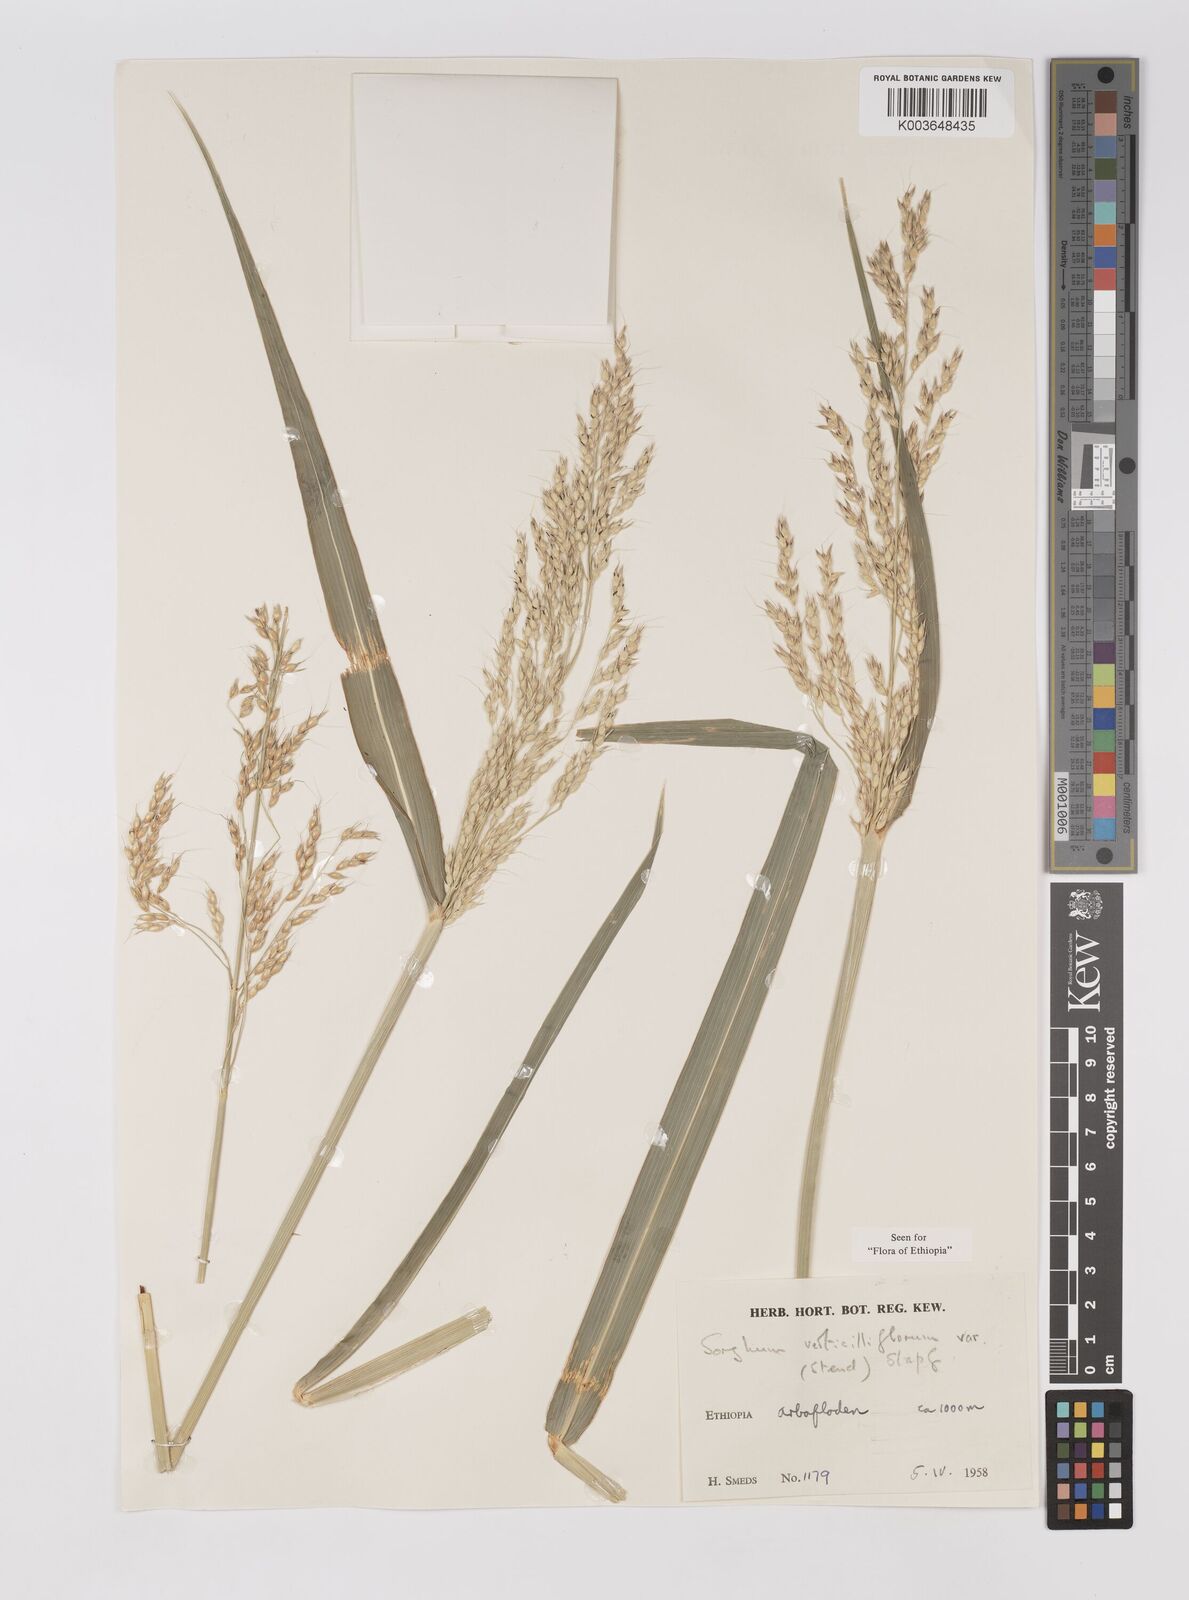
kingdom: Plantae
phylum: Tracheophyta
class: Liliopsida
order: Poales
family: Poaceae
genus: Sorghum
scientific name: Sorghum arundinaceum
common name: Sorghum
